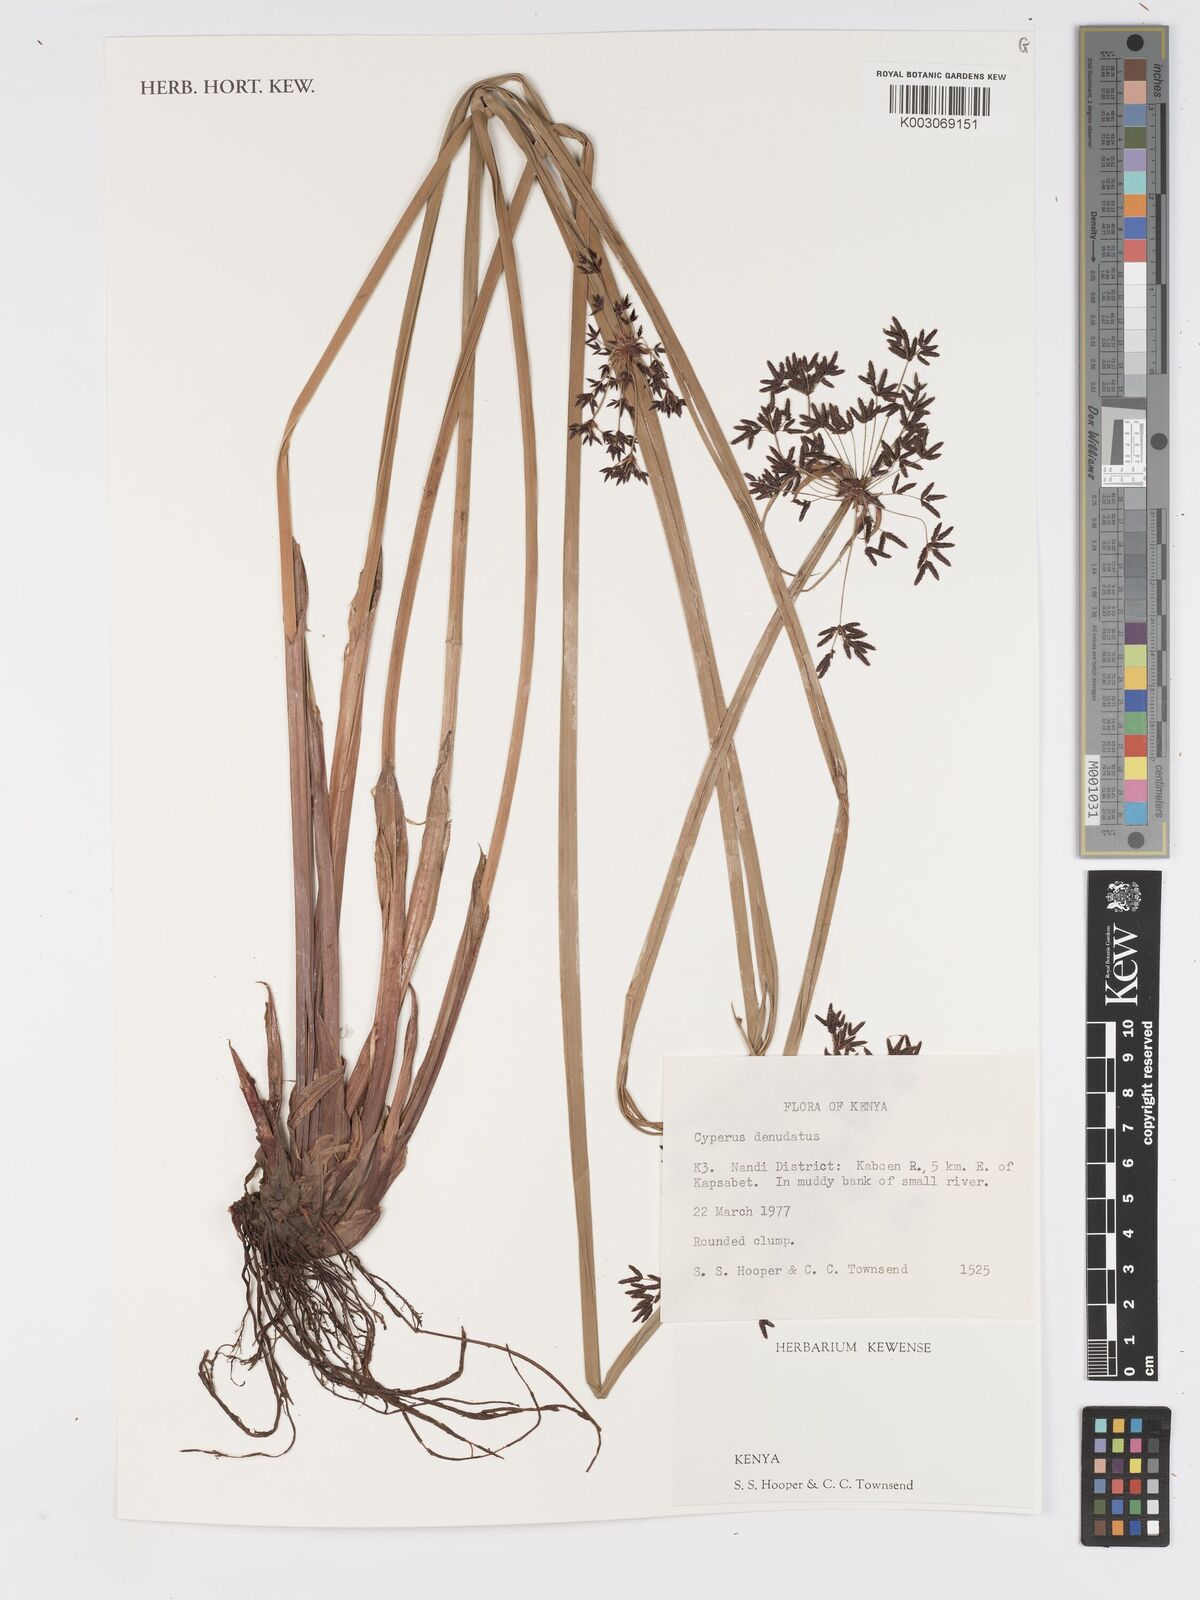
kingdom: Plantae
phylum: Tracheophyta
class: Liliopsida
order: Poales
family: Cyperaceae
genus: Cyperus
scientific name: Cyperus denudatus
